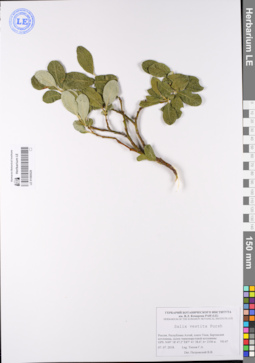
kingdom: Plantae
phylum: Tracheophyta
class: Magnoliopsida
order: Malpighiales
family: Salicaceae
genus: Salix
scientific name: Salix vestita
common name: Hairy willow
